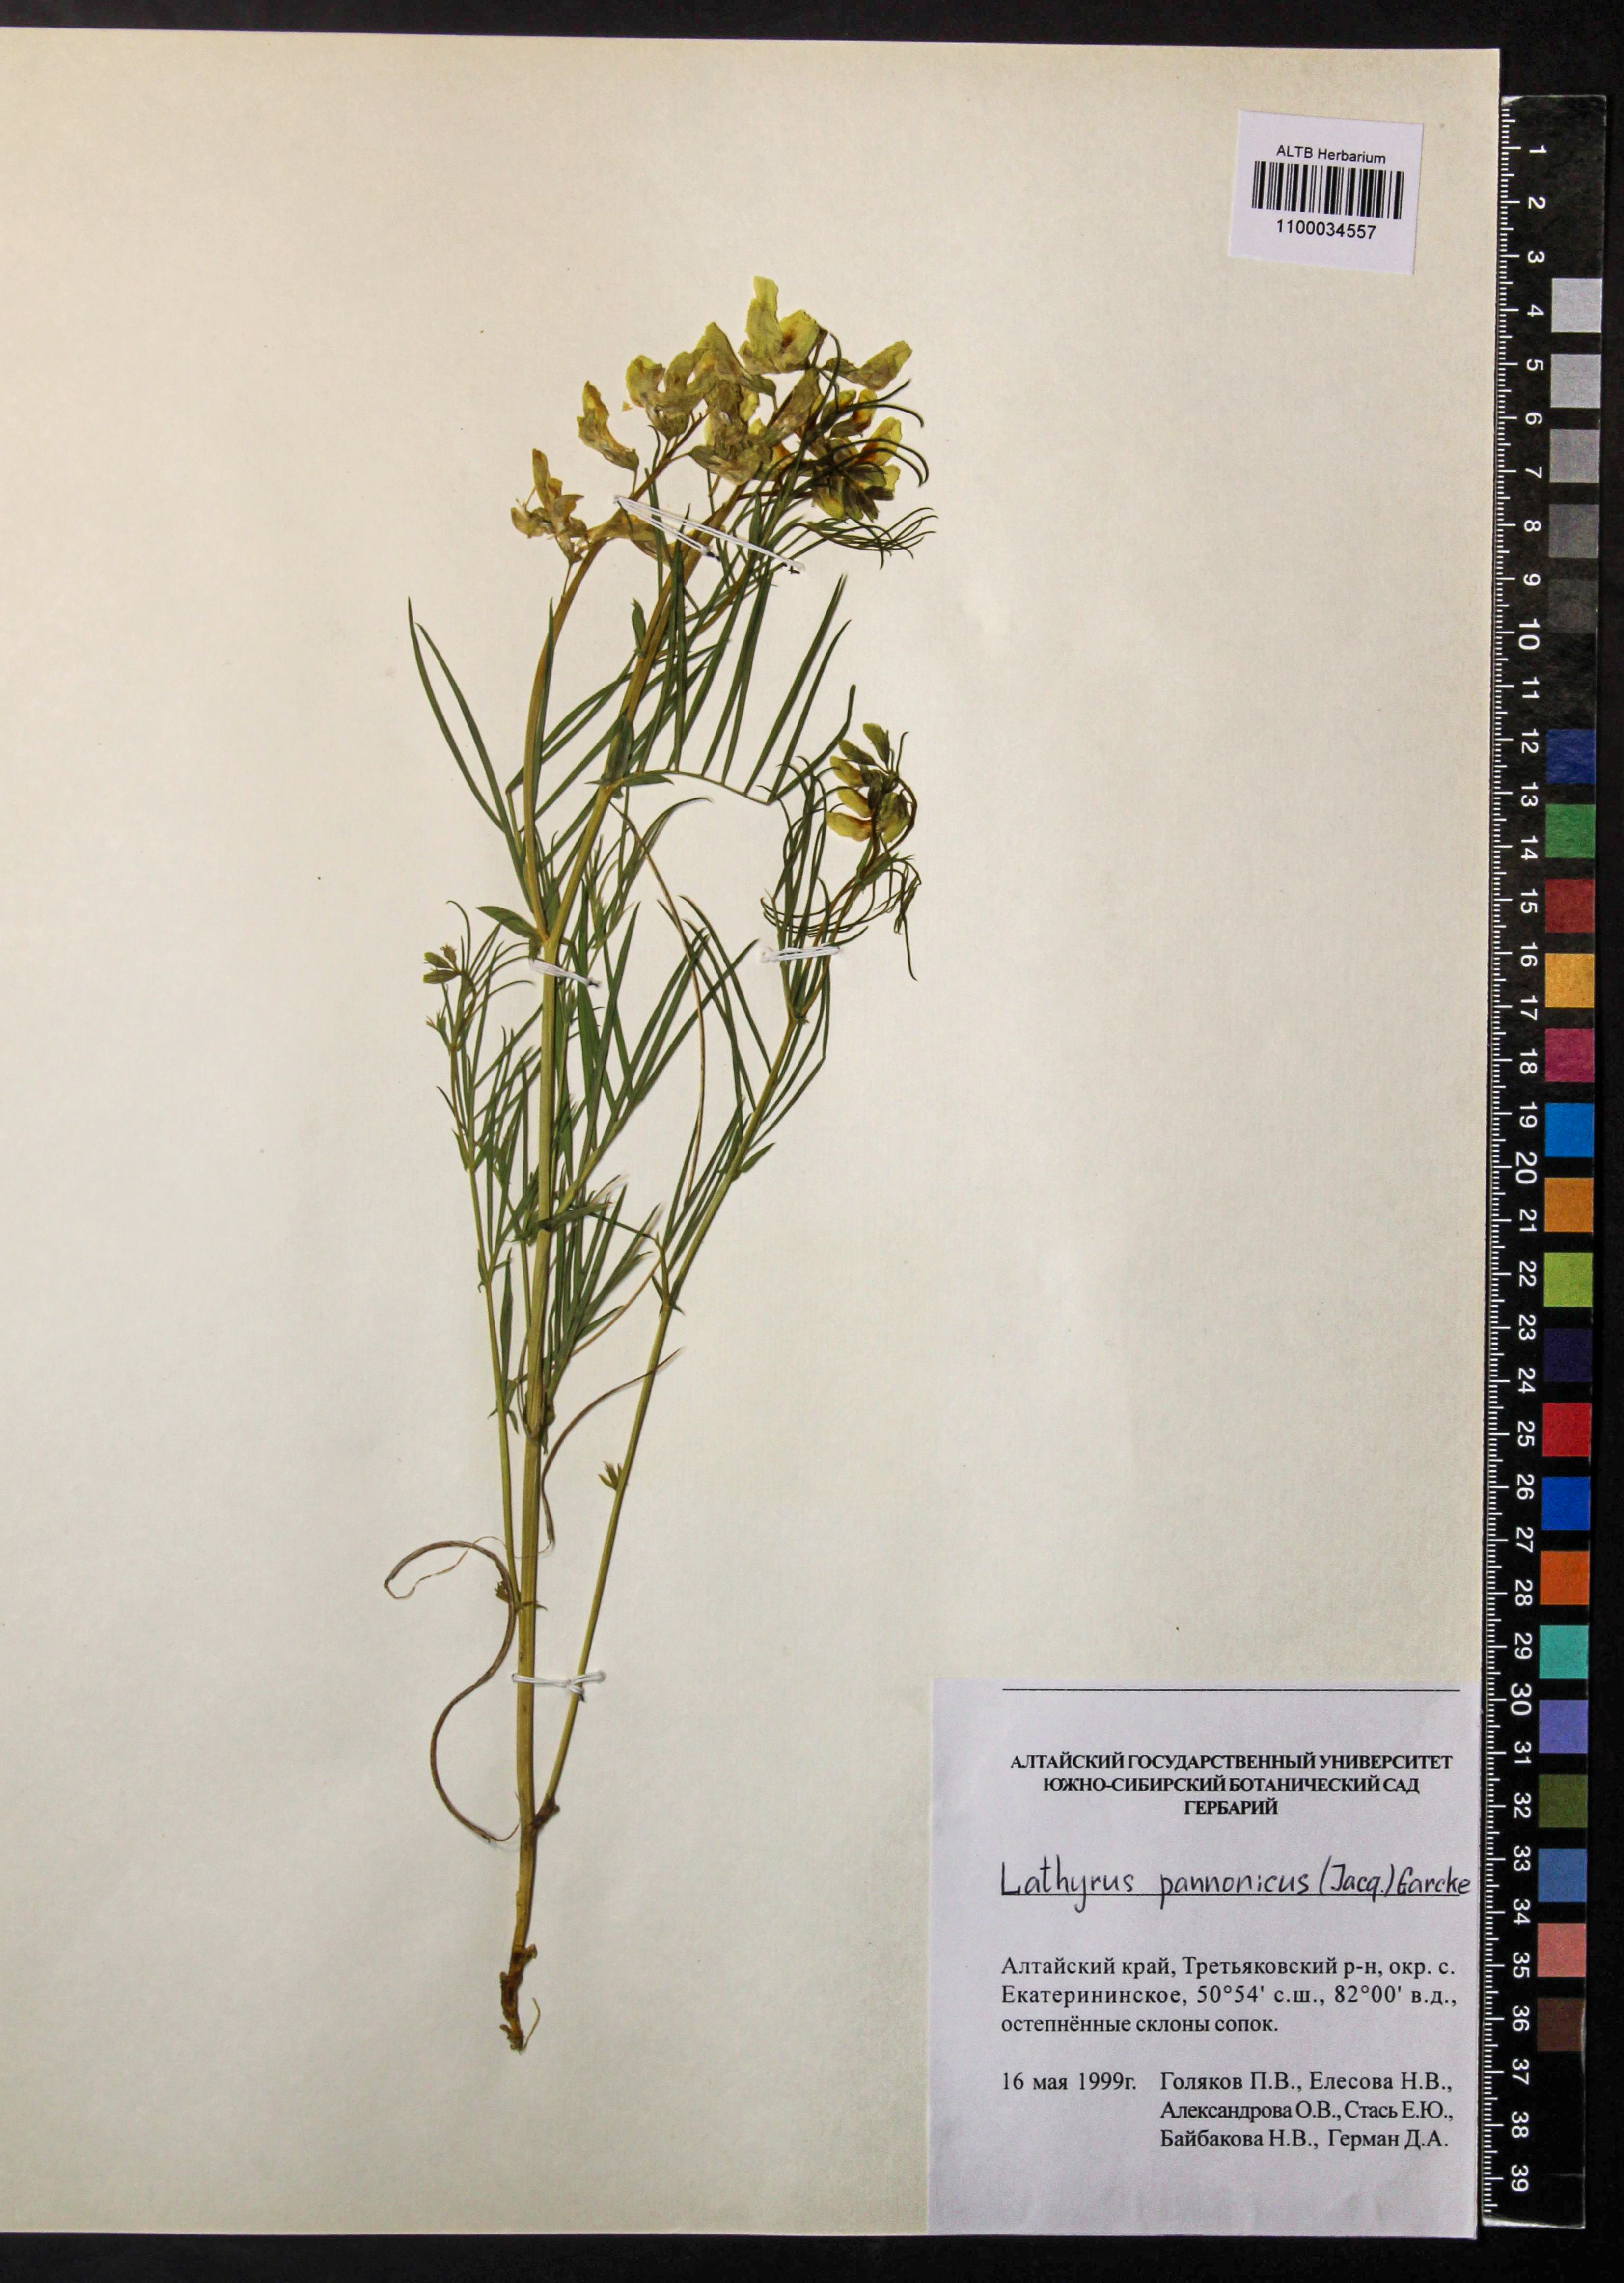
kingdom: Plantae
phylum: Tracheophyta
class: Magnoliopsida
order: Fabales
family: Fabaceae
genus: Lathyrus
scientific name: Lathyrus pannonicus
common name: Pea
